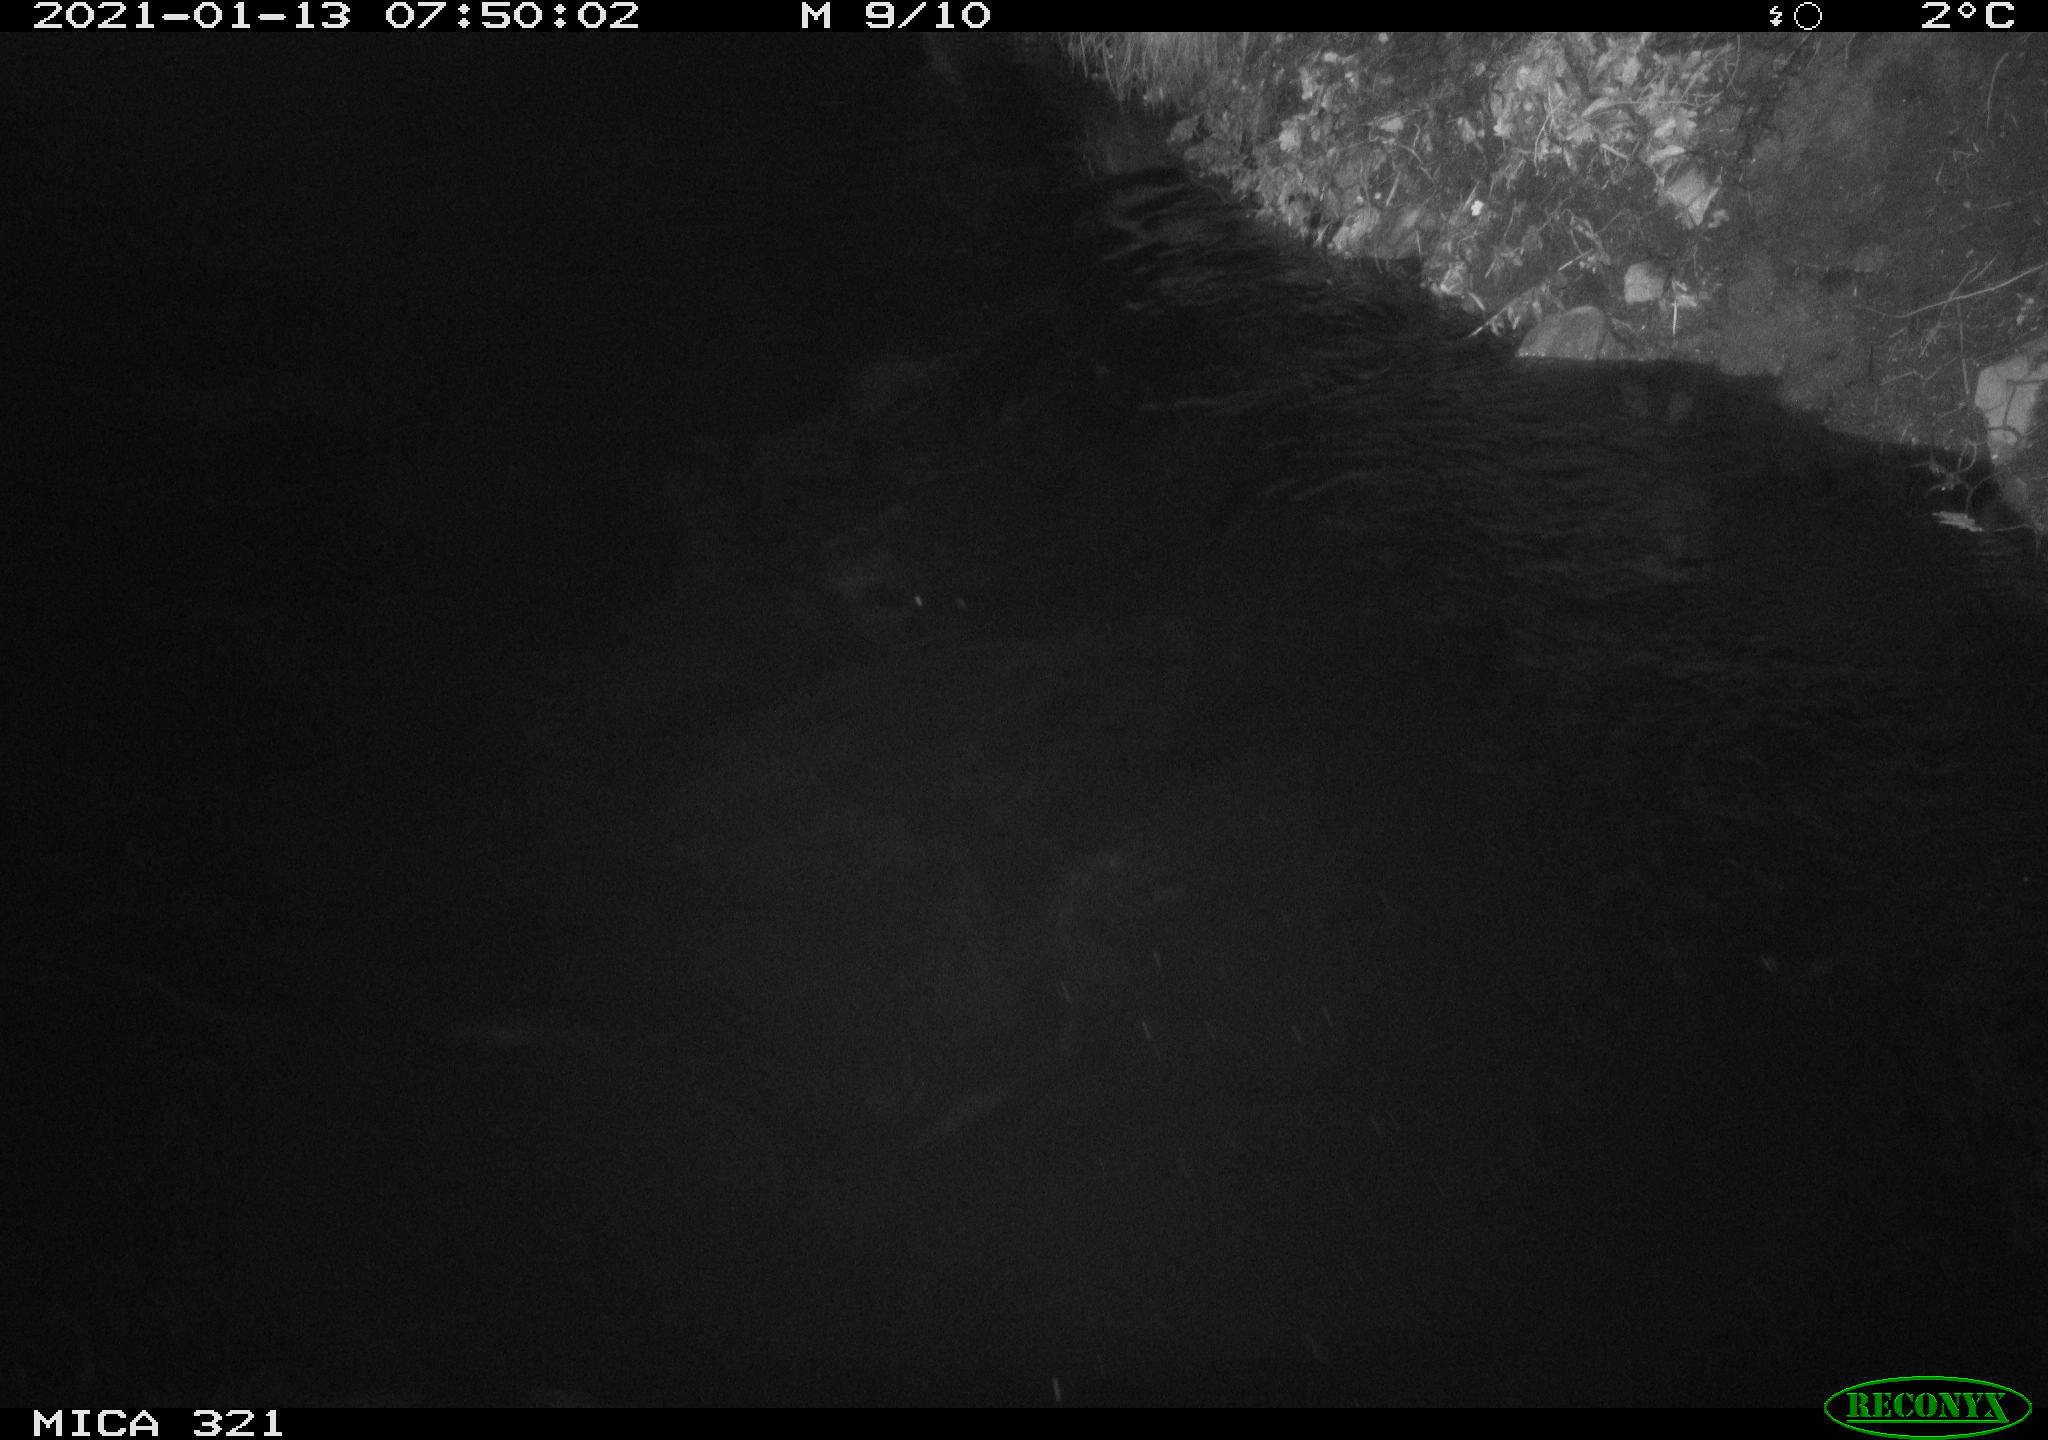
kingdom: Animalia
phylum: Chordata
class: Aves
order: Anseriformes
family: Anatidae
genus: Anas
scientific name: Anas platyrhynchos
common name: Mallard
